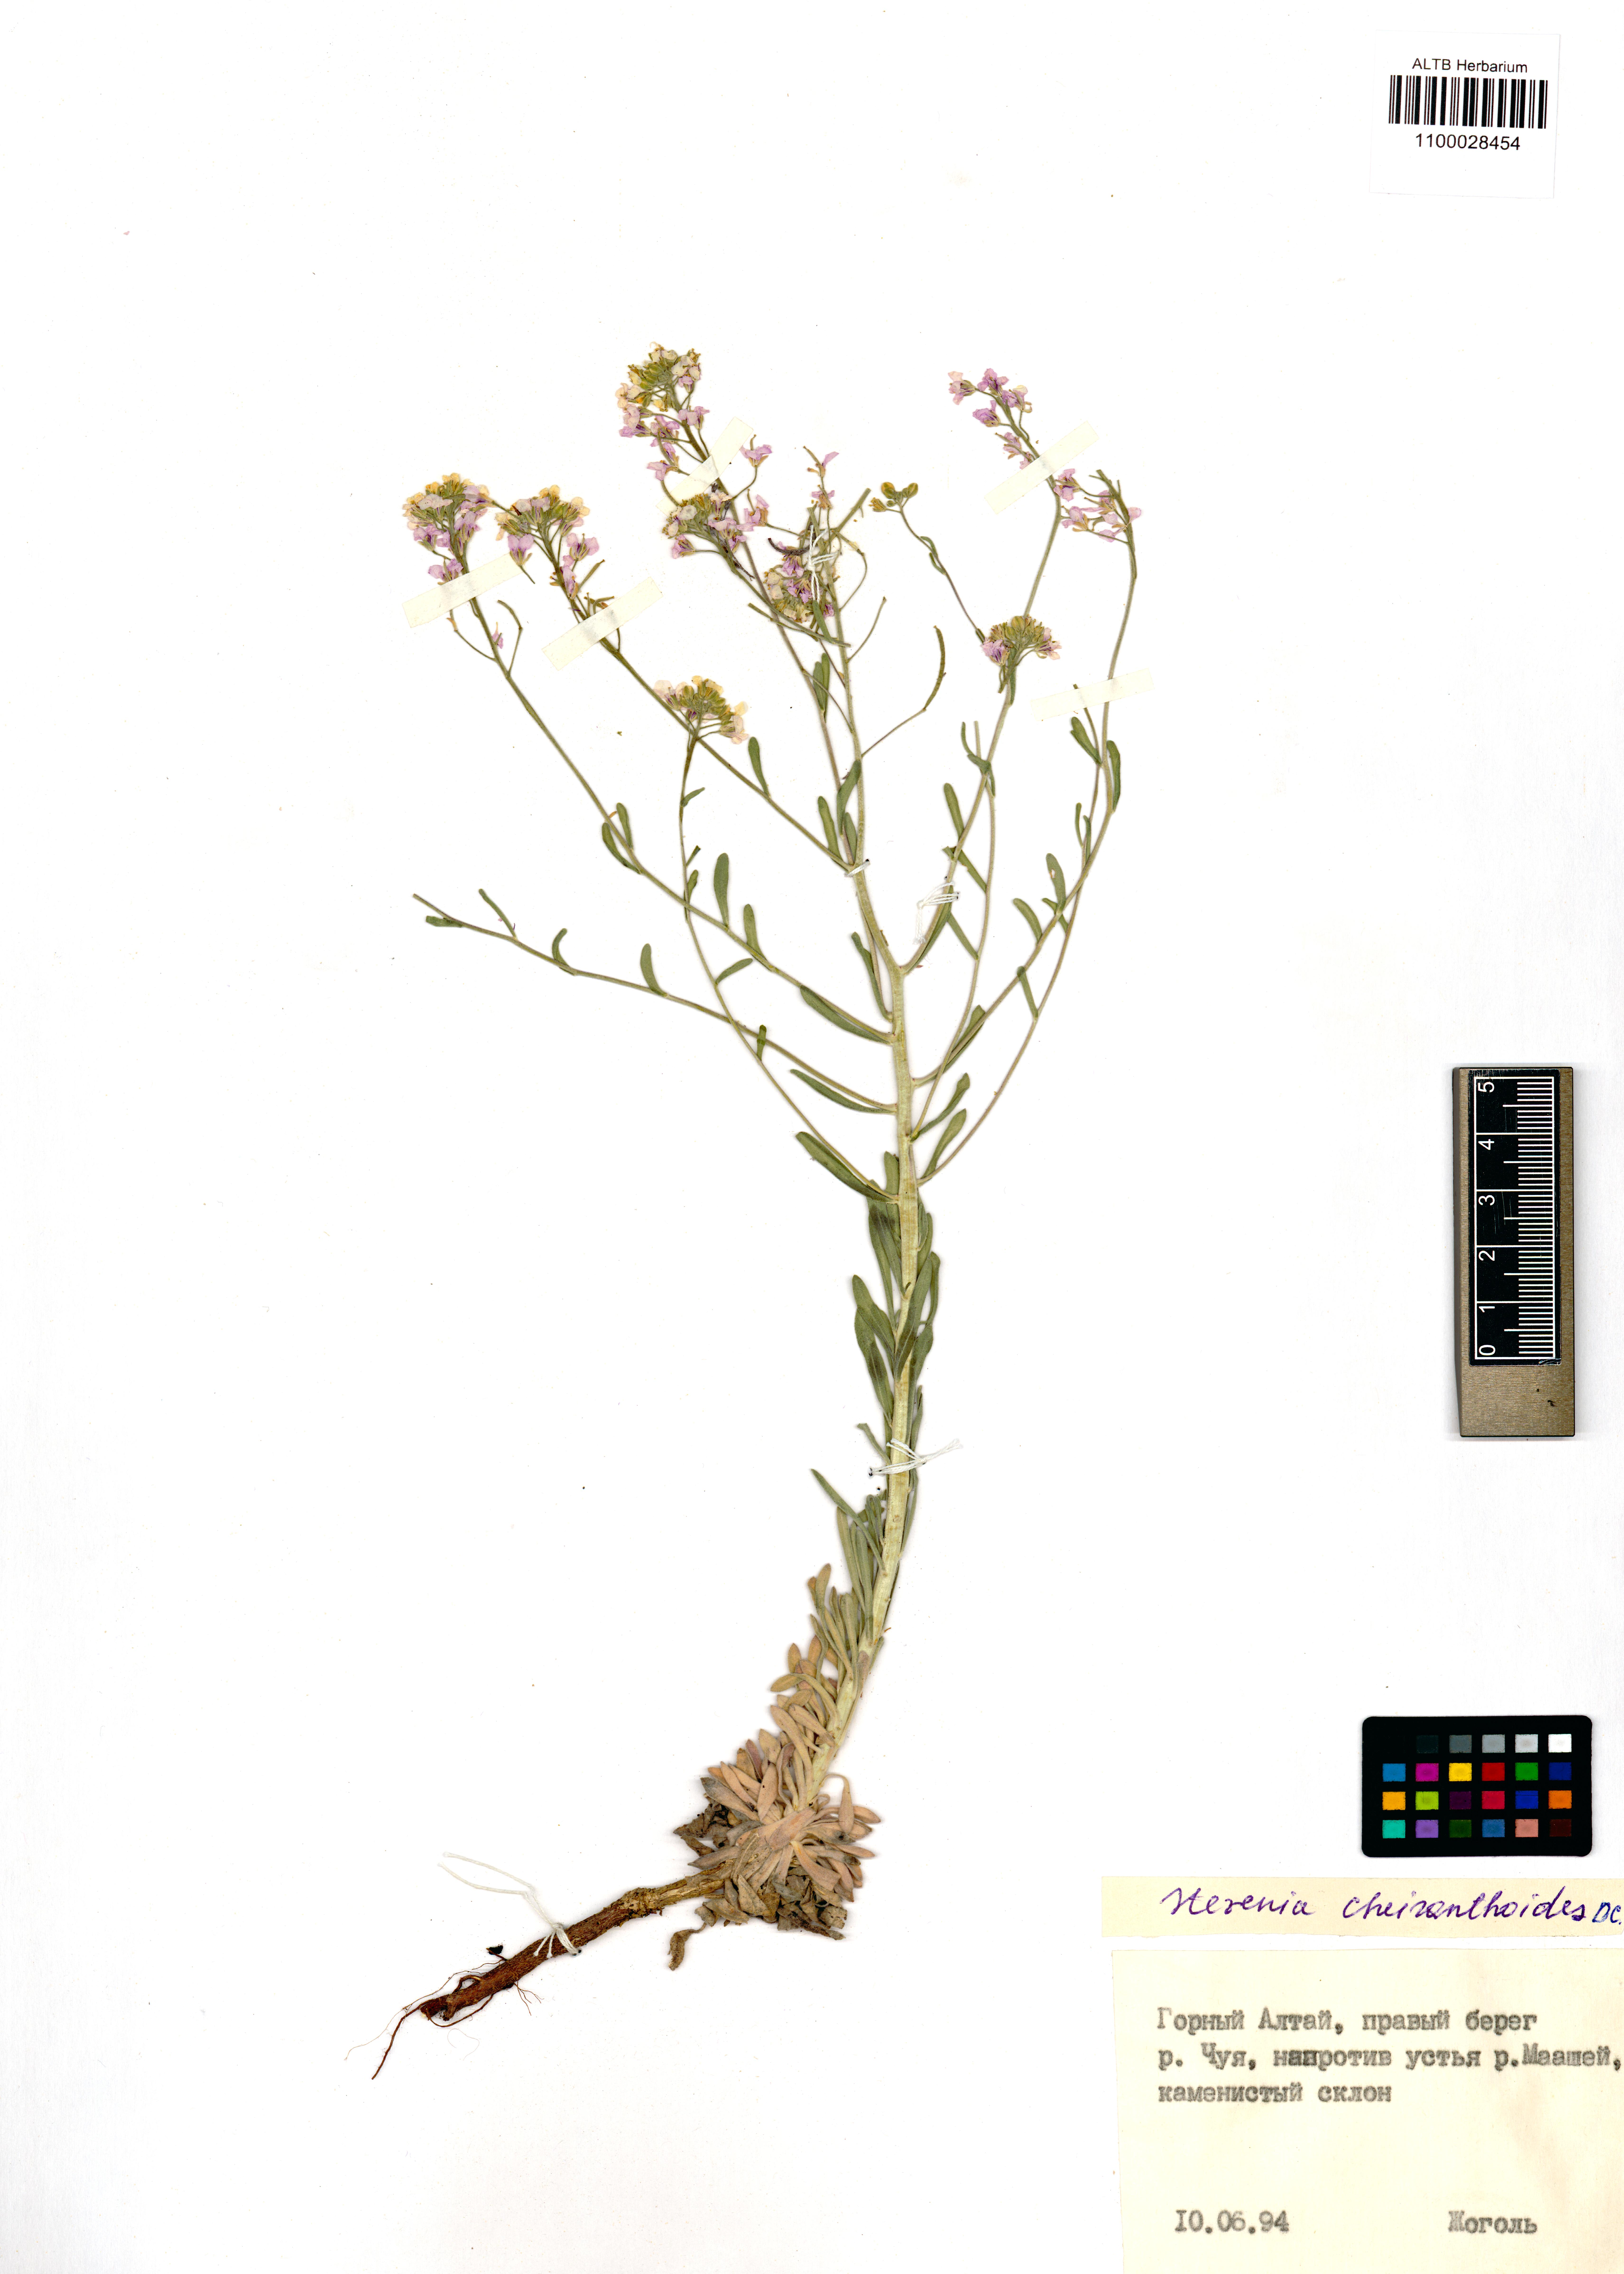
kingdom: Plantae
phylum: Tracheophyta
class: Magnoliopsida
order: Brassicales
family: Brassicaceae
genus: Stevenia
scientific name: Stevenia incarnata
